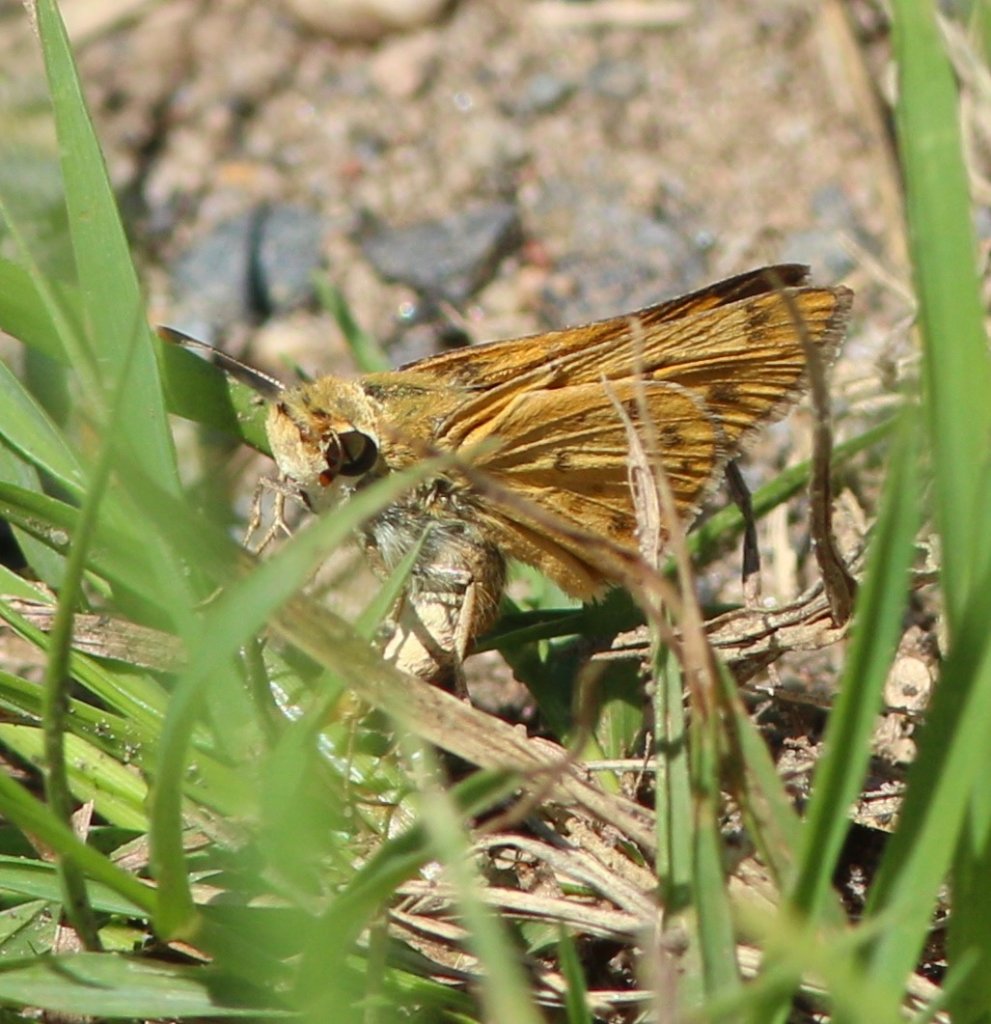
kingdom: Animalia
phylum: Arthropoda
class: Insecta
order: Lepidoptera
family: Hesperiidae
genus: Hylephila
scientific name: Hylephila phyleus
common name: Fiery Skipper
